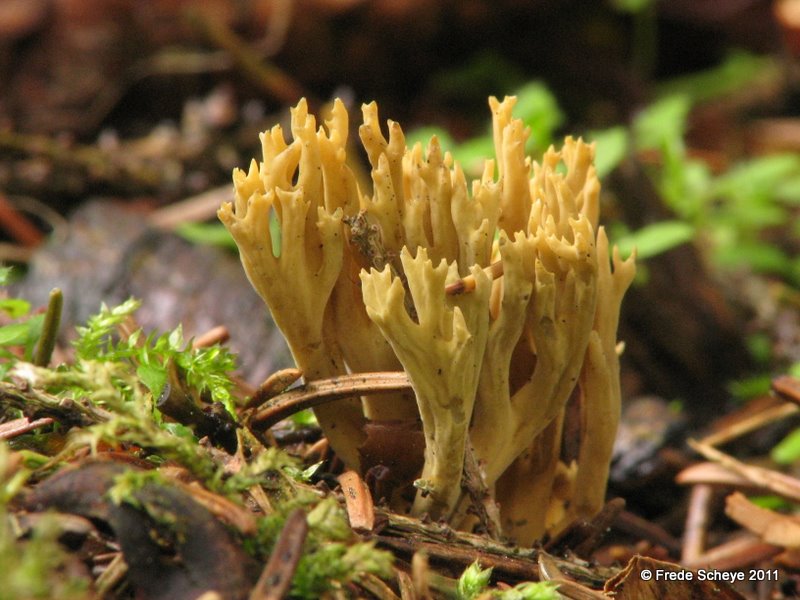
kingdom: Fungi
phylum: Basidiomycota
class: Agaricomycetes
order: Gomphales
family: Gomphaceae
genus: Phaeoclavulina
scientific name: Phaeoclavulina eumorpha
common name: gran-koralsvamp
